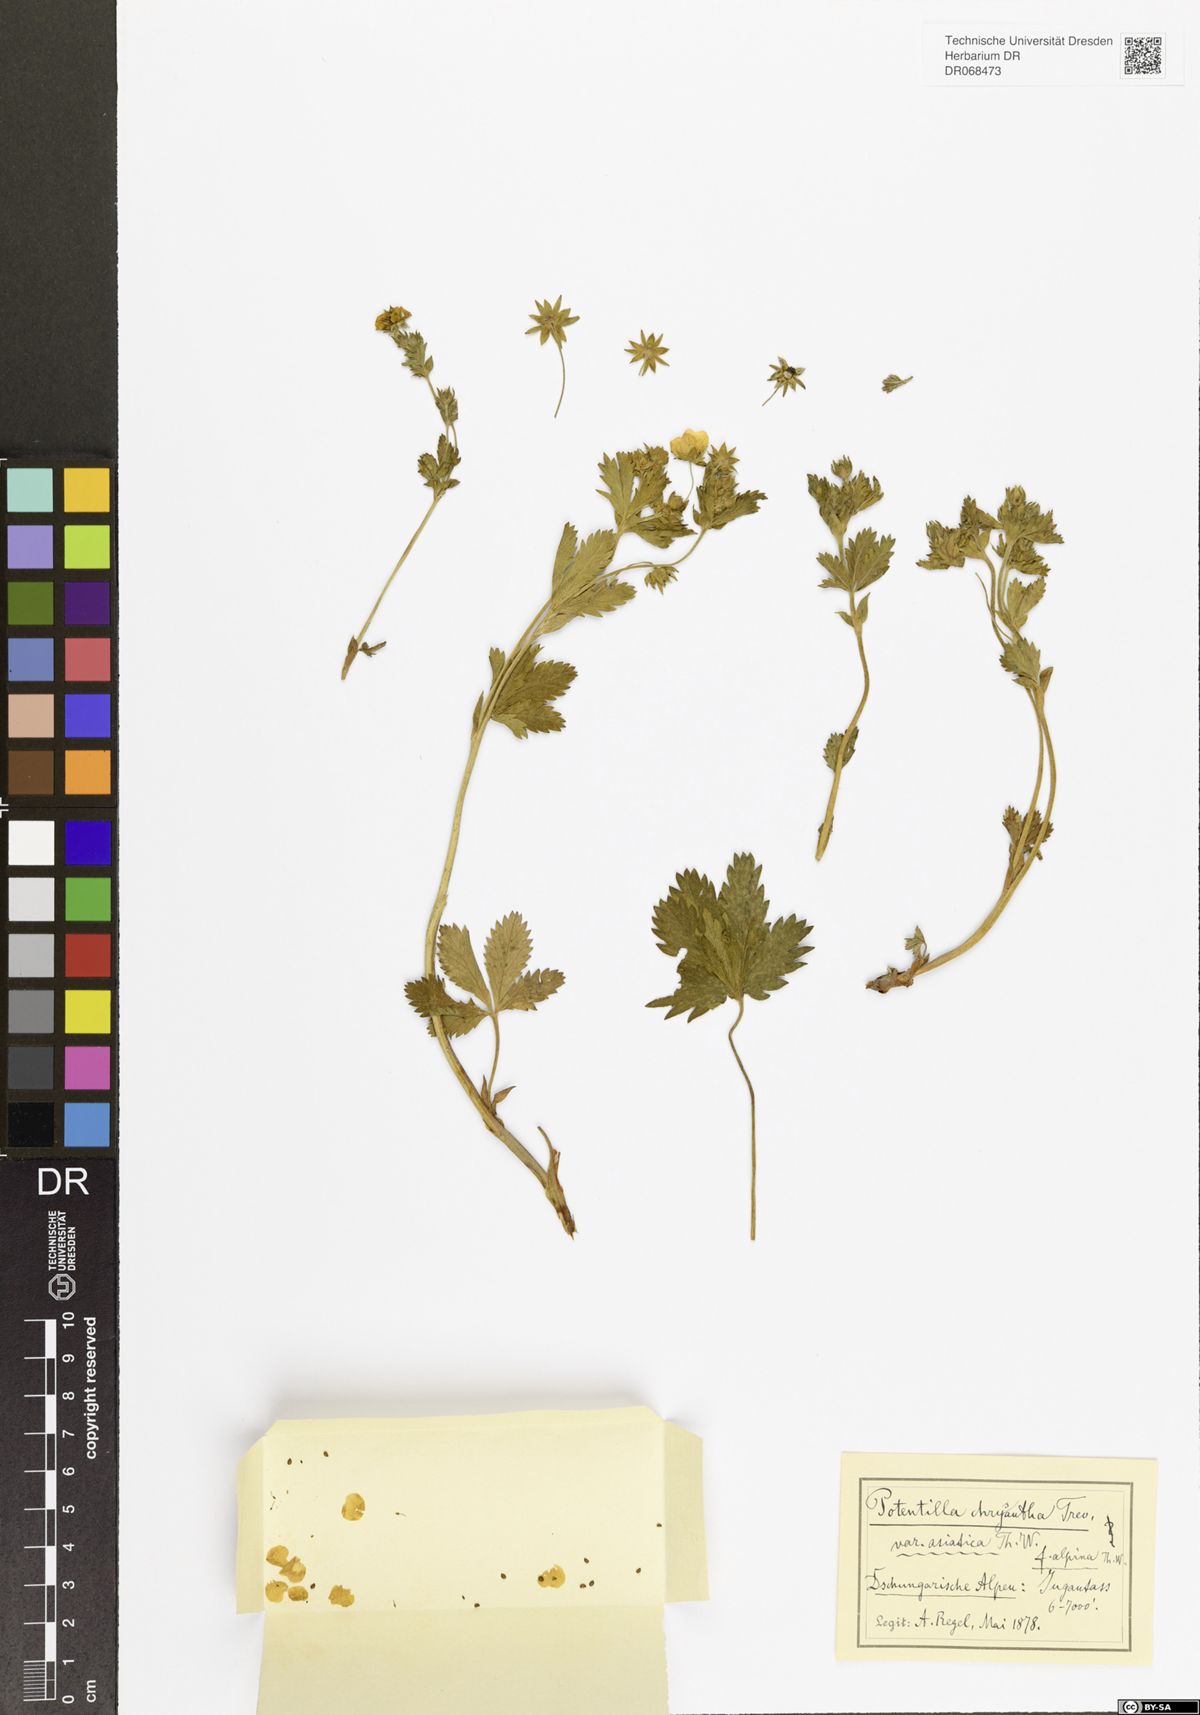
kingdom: Plantae
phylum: Tracheophyta
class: Magnoliopsida
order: Rosales
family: Rosaceae
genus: Potentilla
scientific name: Potentilla asiatica
